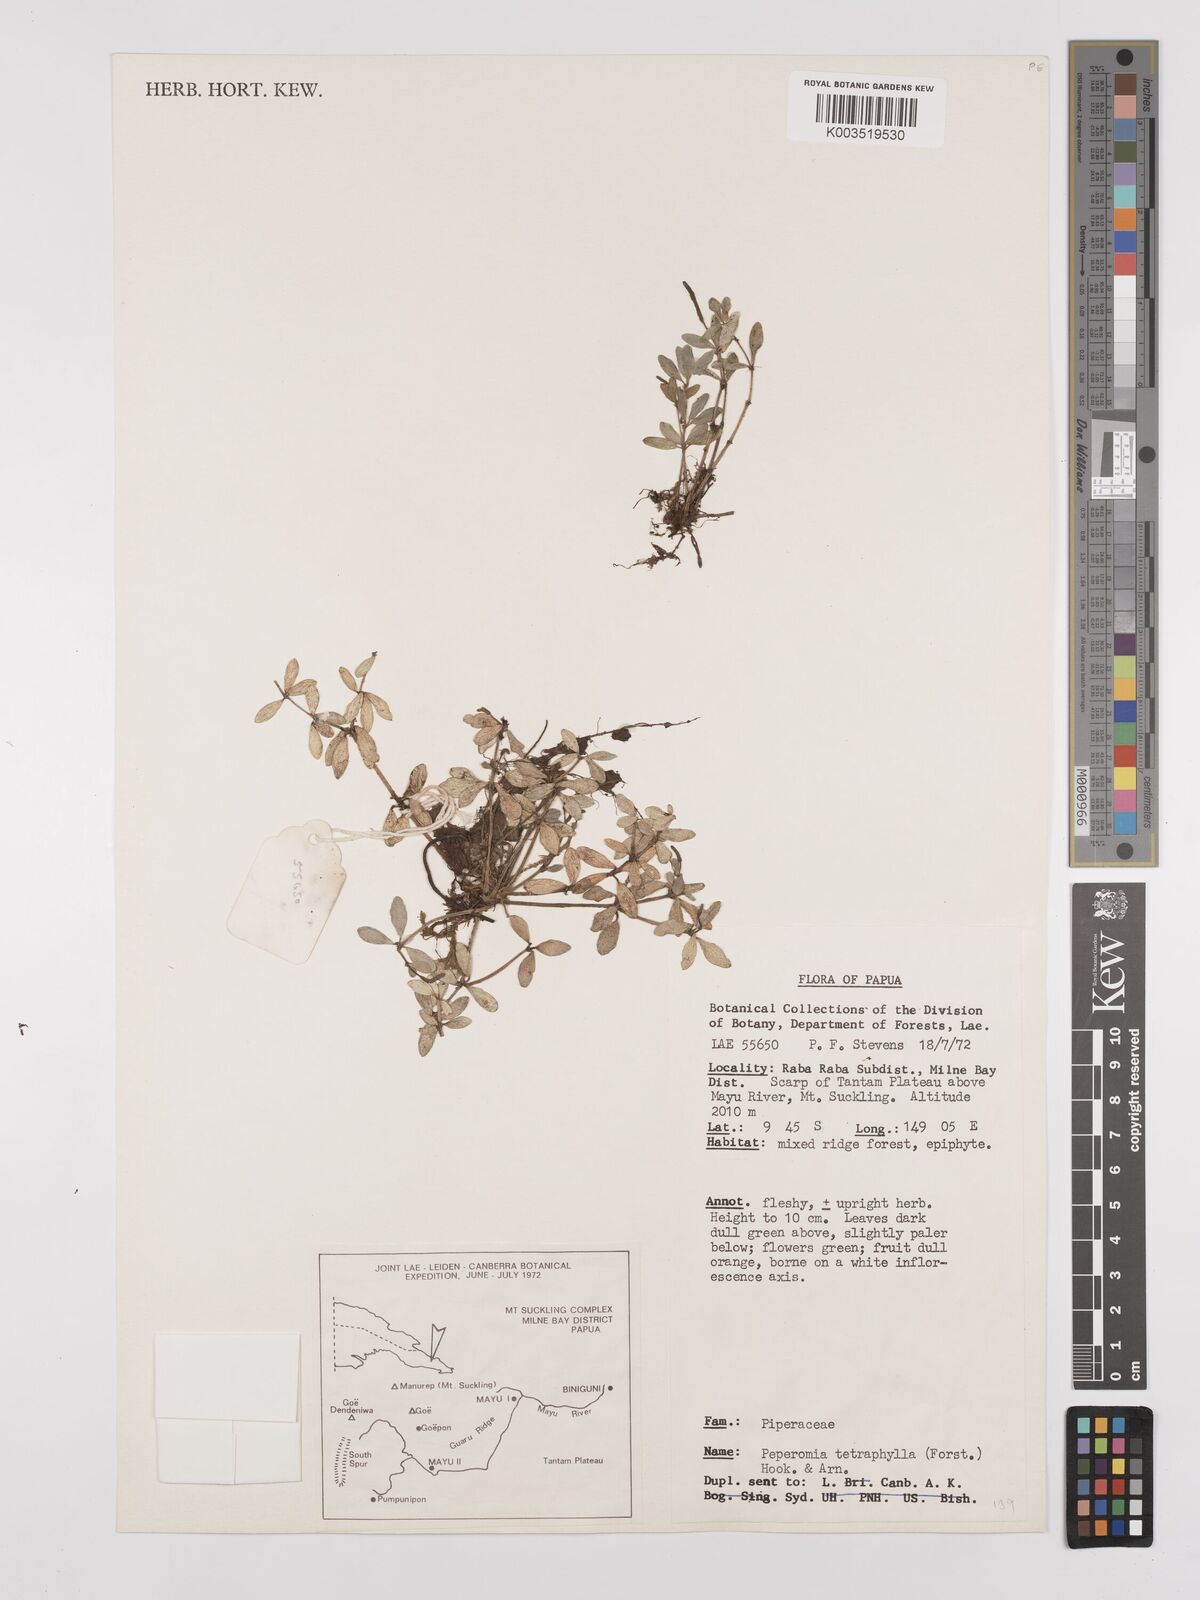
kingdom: Plantae
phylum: Tracheophyta
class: Magnoliopsida
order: Piperales
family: Piperaceae
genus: Peperomia
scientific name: Peperomia tetraphylla
